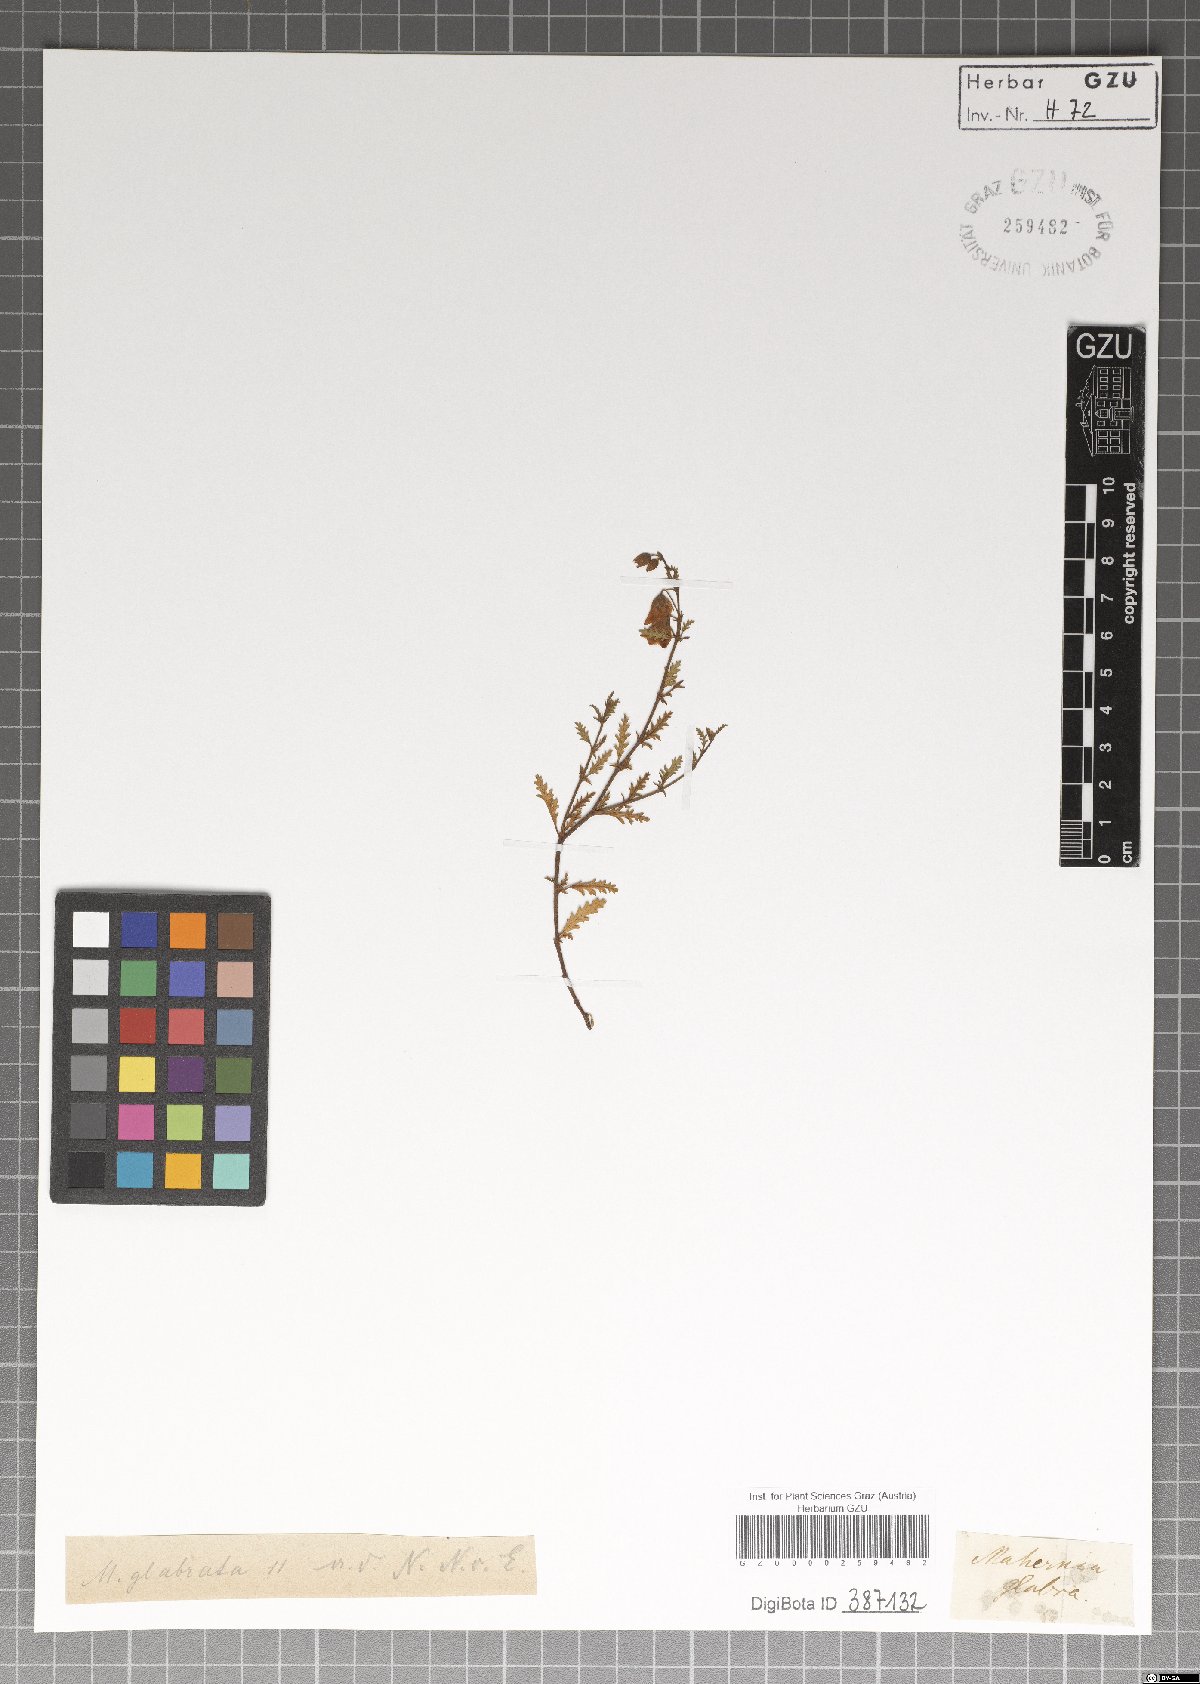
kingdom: Plantae
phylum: Tracheophyta
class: Magnoliopsida
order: Malvales
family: Malvaceae
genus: Hermannia
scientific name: Hermannia glabrata
